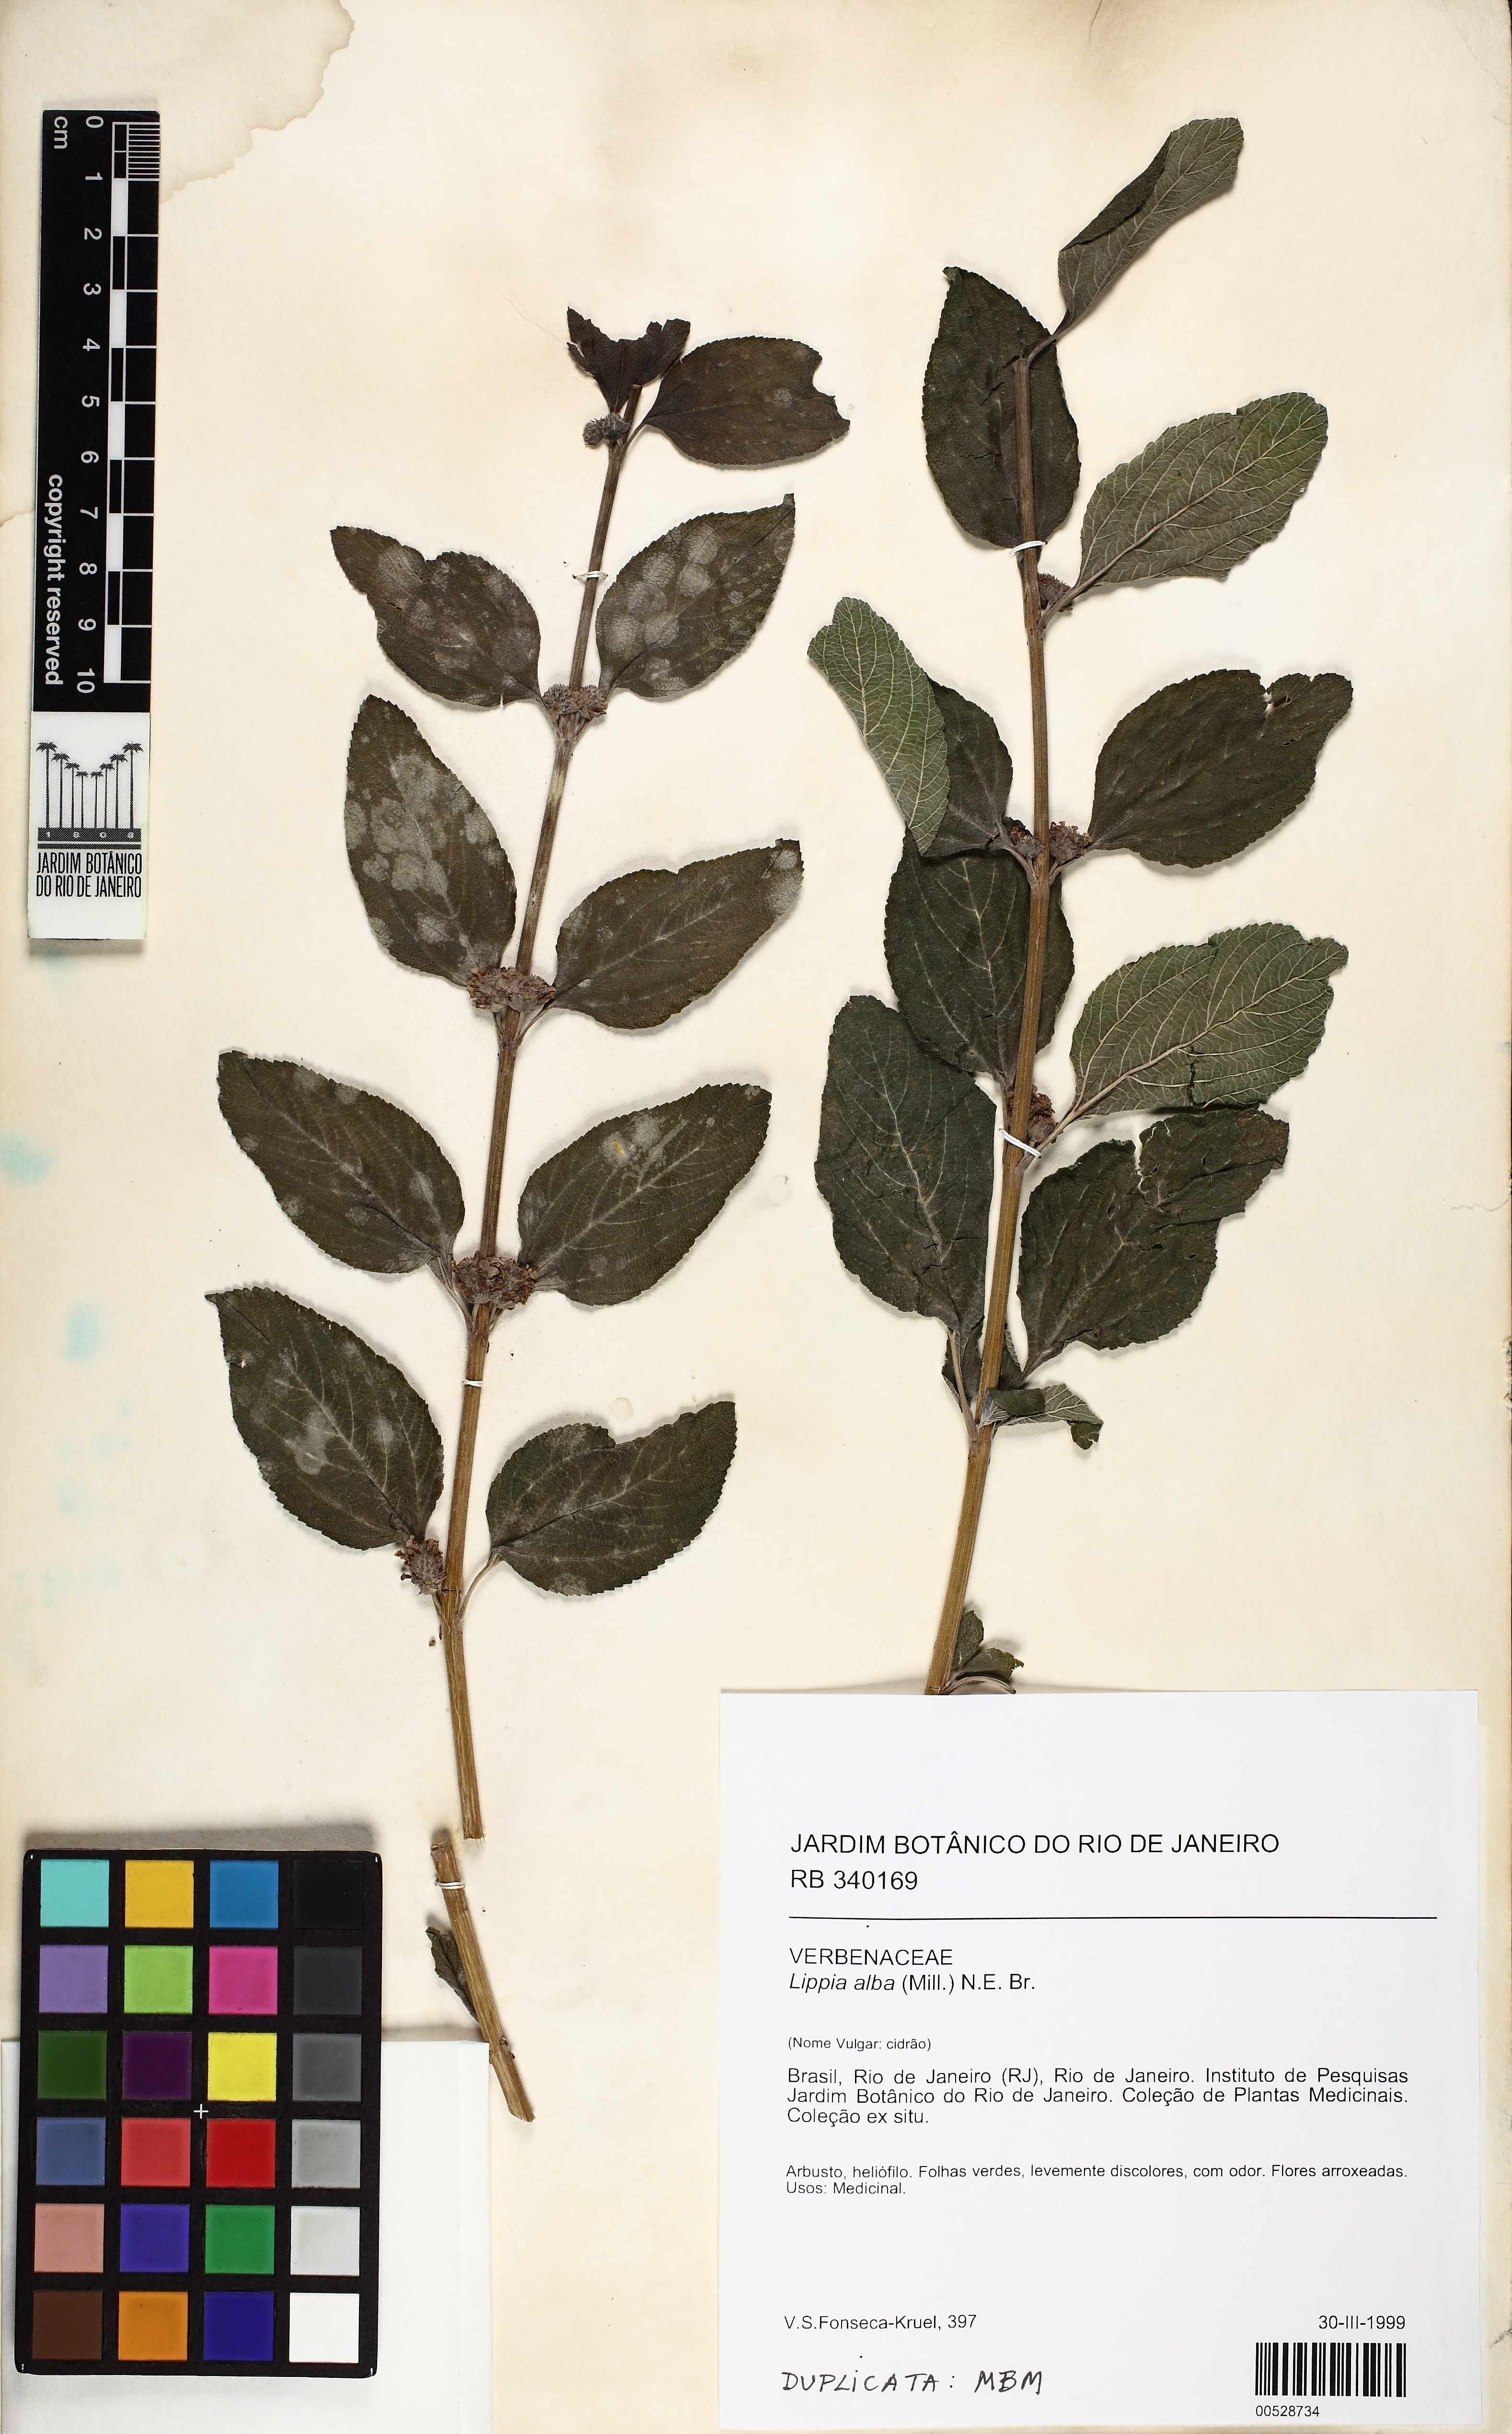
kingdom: Plantae
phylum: Tracheophyta
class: Magnoliopsida
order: Lamiales
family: Verbenaceae
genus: Lippia
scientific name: Lippia alba
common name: Bushy matgrass
